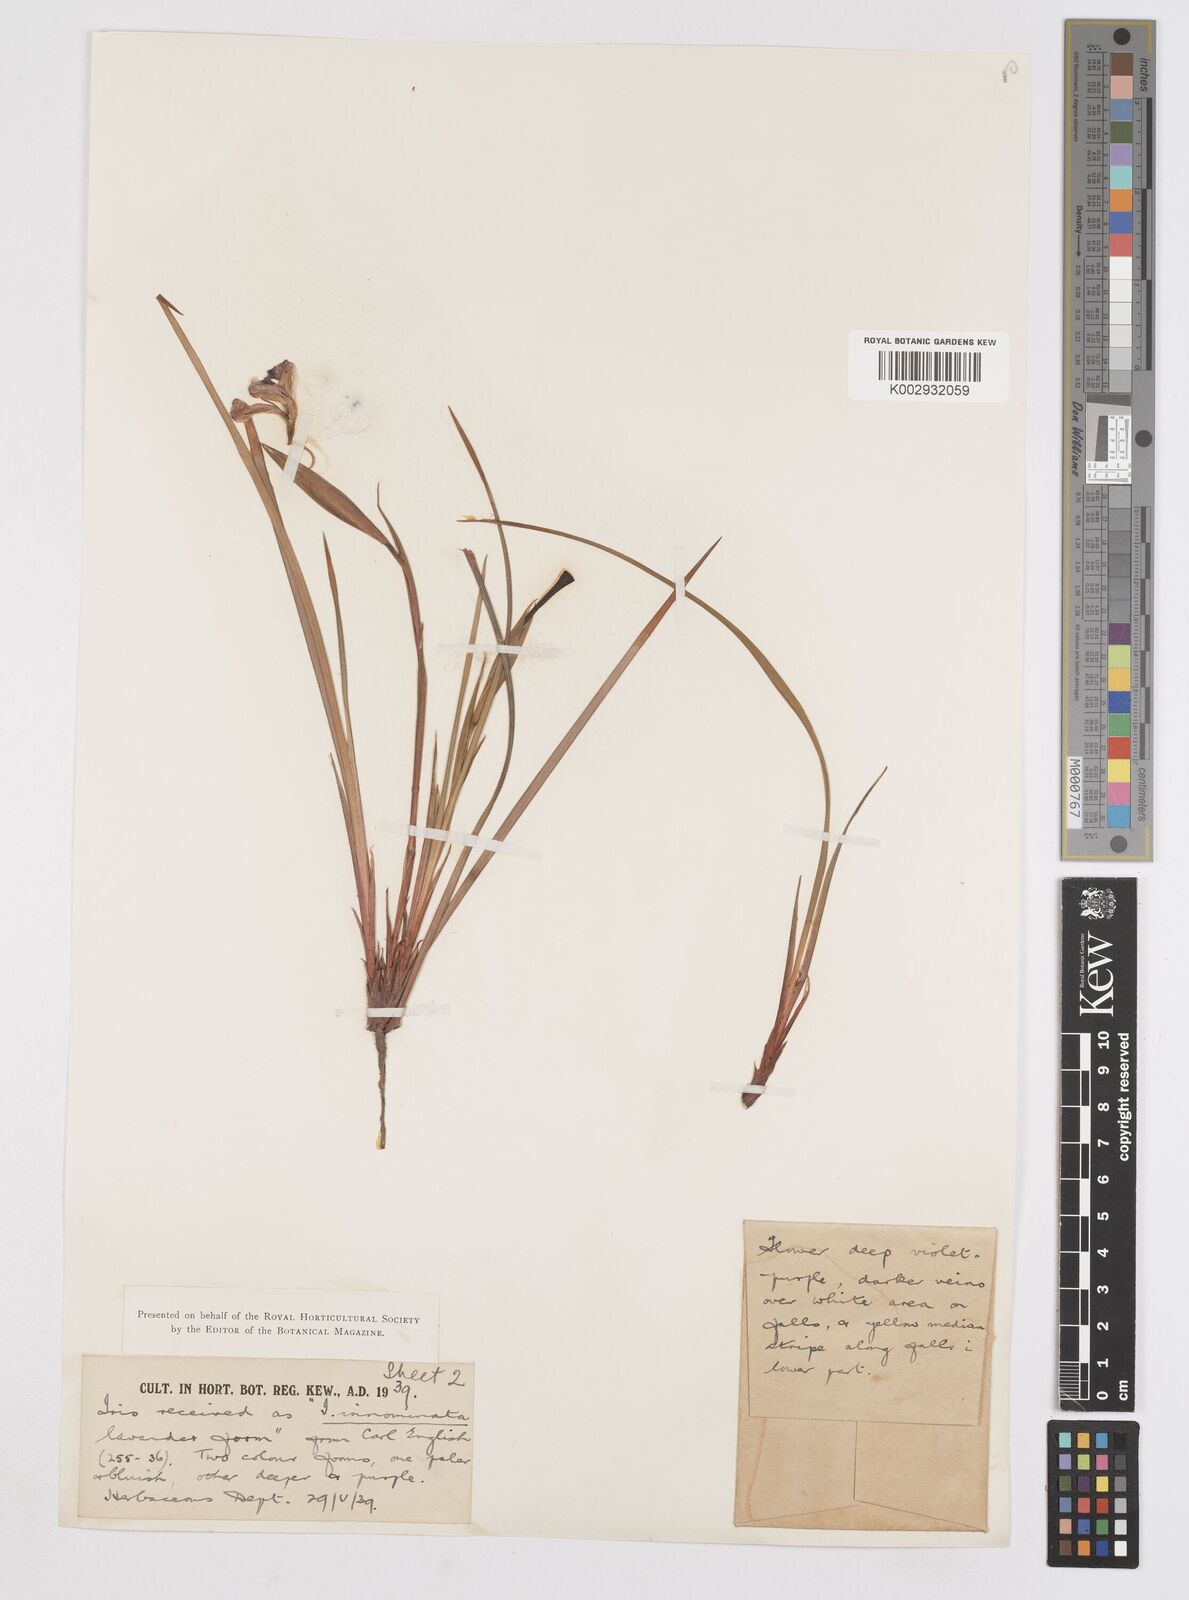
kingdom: Plantae
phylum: Tracheophyta
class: Liliopsida
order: Asparagales
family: Iridaceae
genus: Iris
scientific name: Iris innominata
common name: Del norte county iris
